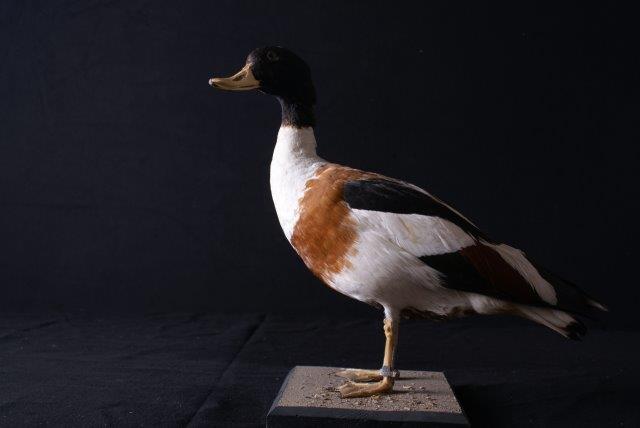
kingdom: Animalia
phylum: Chordata
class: Aves
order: Anseriformes
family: Anatidae
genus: Tadorna
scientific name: Tadorna tadorna
